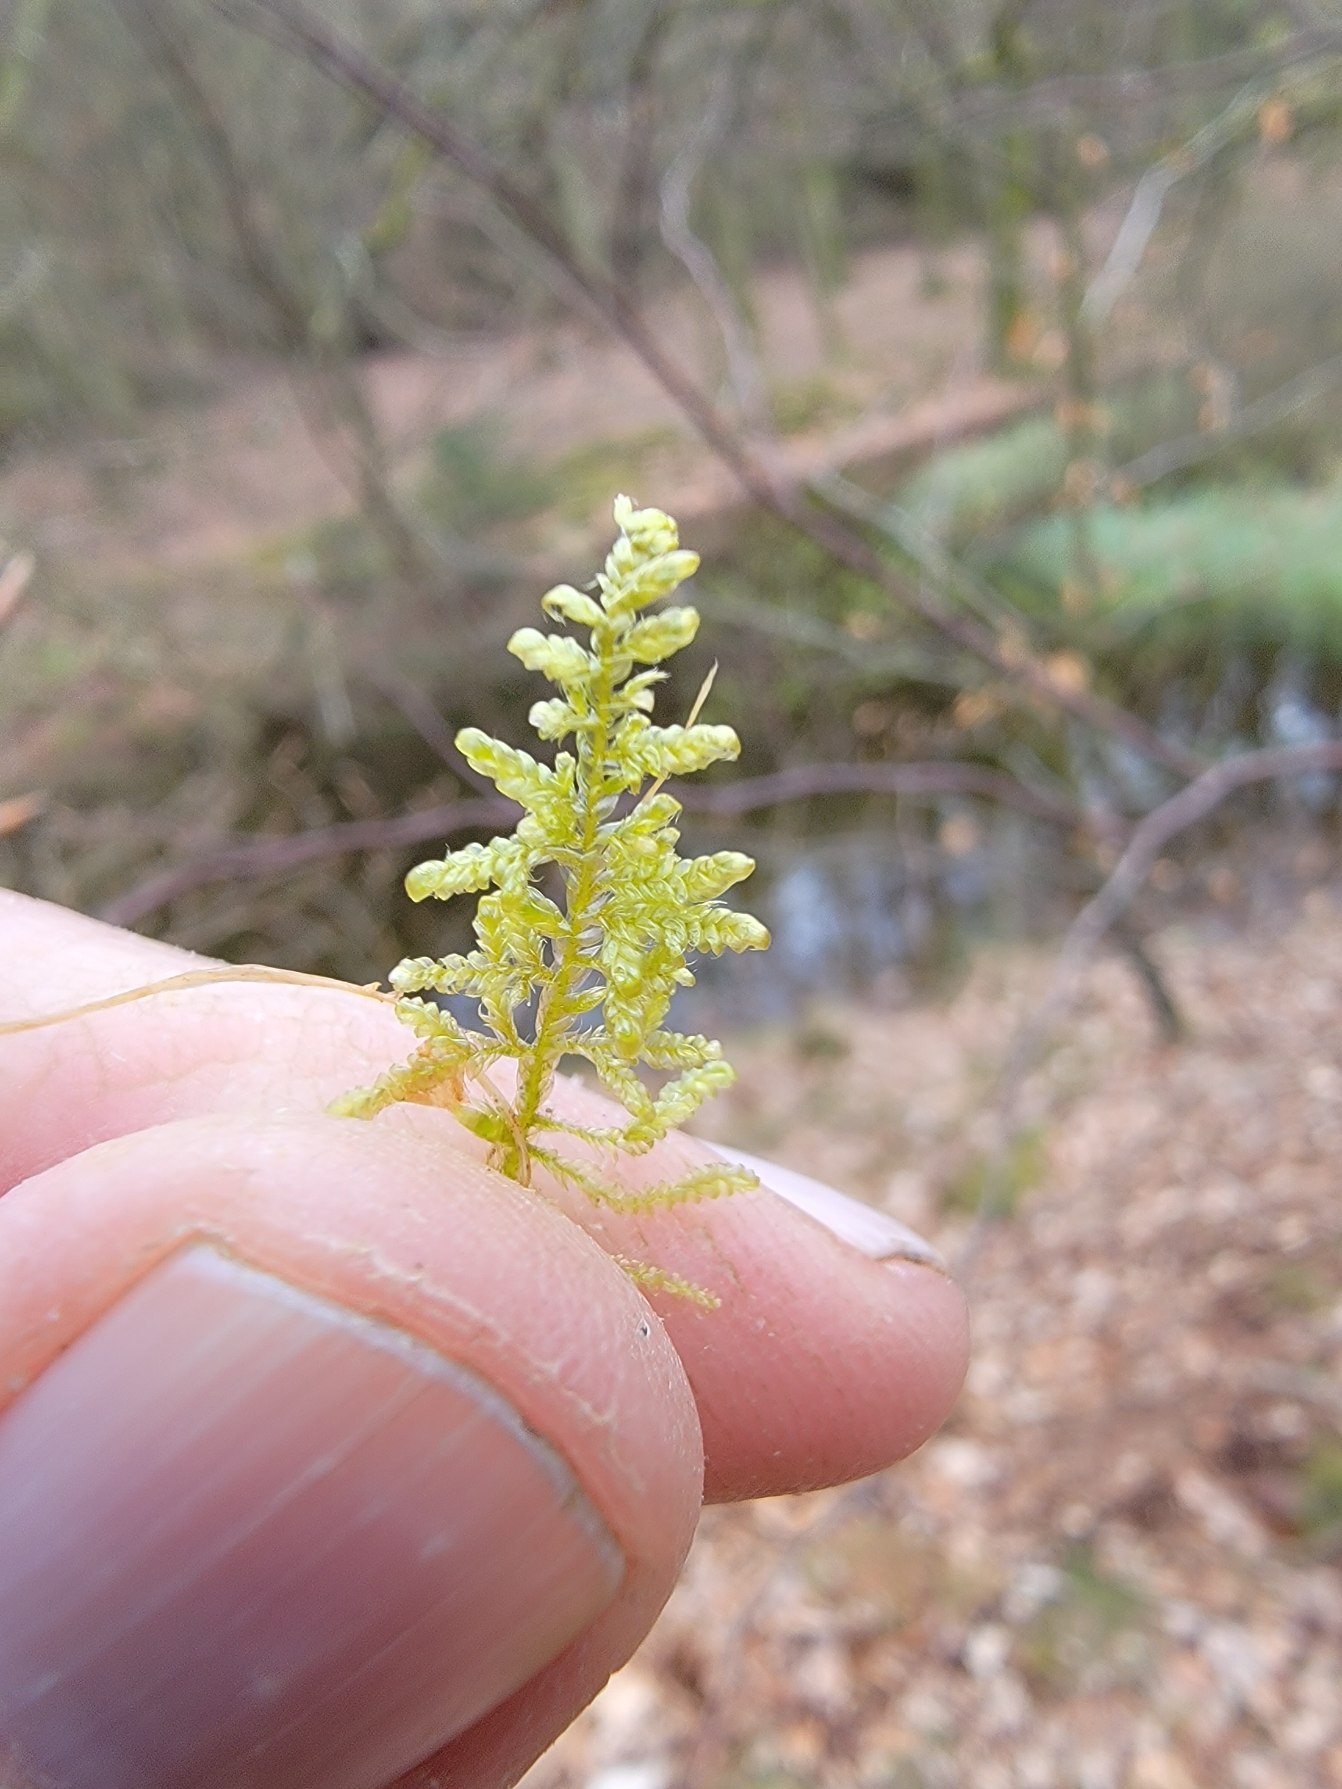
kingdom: Plantae
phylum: Bryophyta
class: Bryopsida
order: Hypnales
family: Hypnaceae
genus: Hypnum
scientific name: Hypnum jutlandicum
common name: Hede-cypresmos
